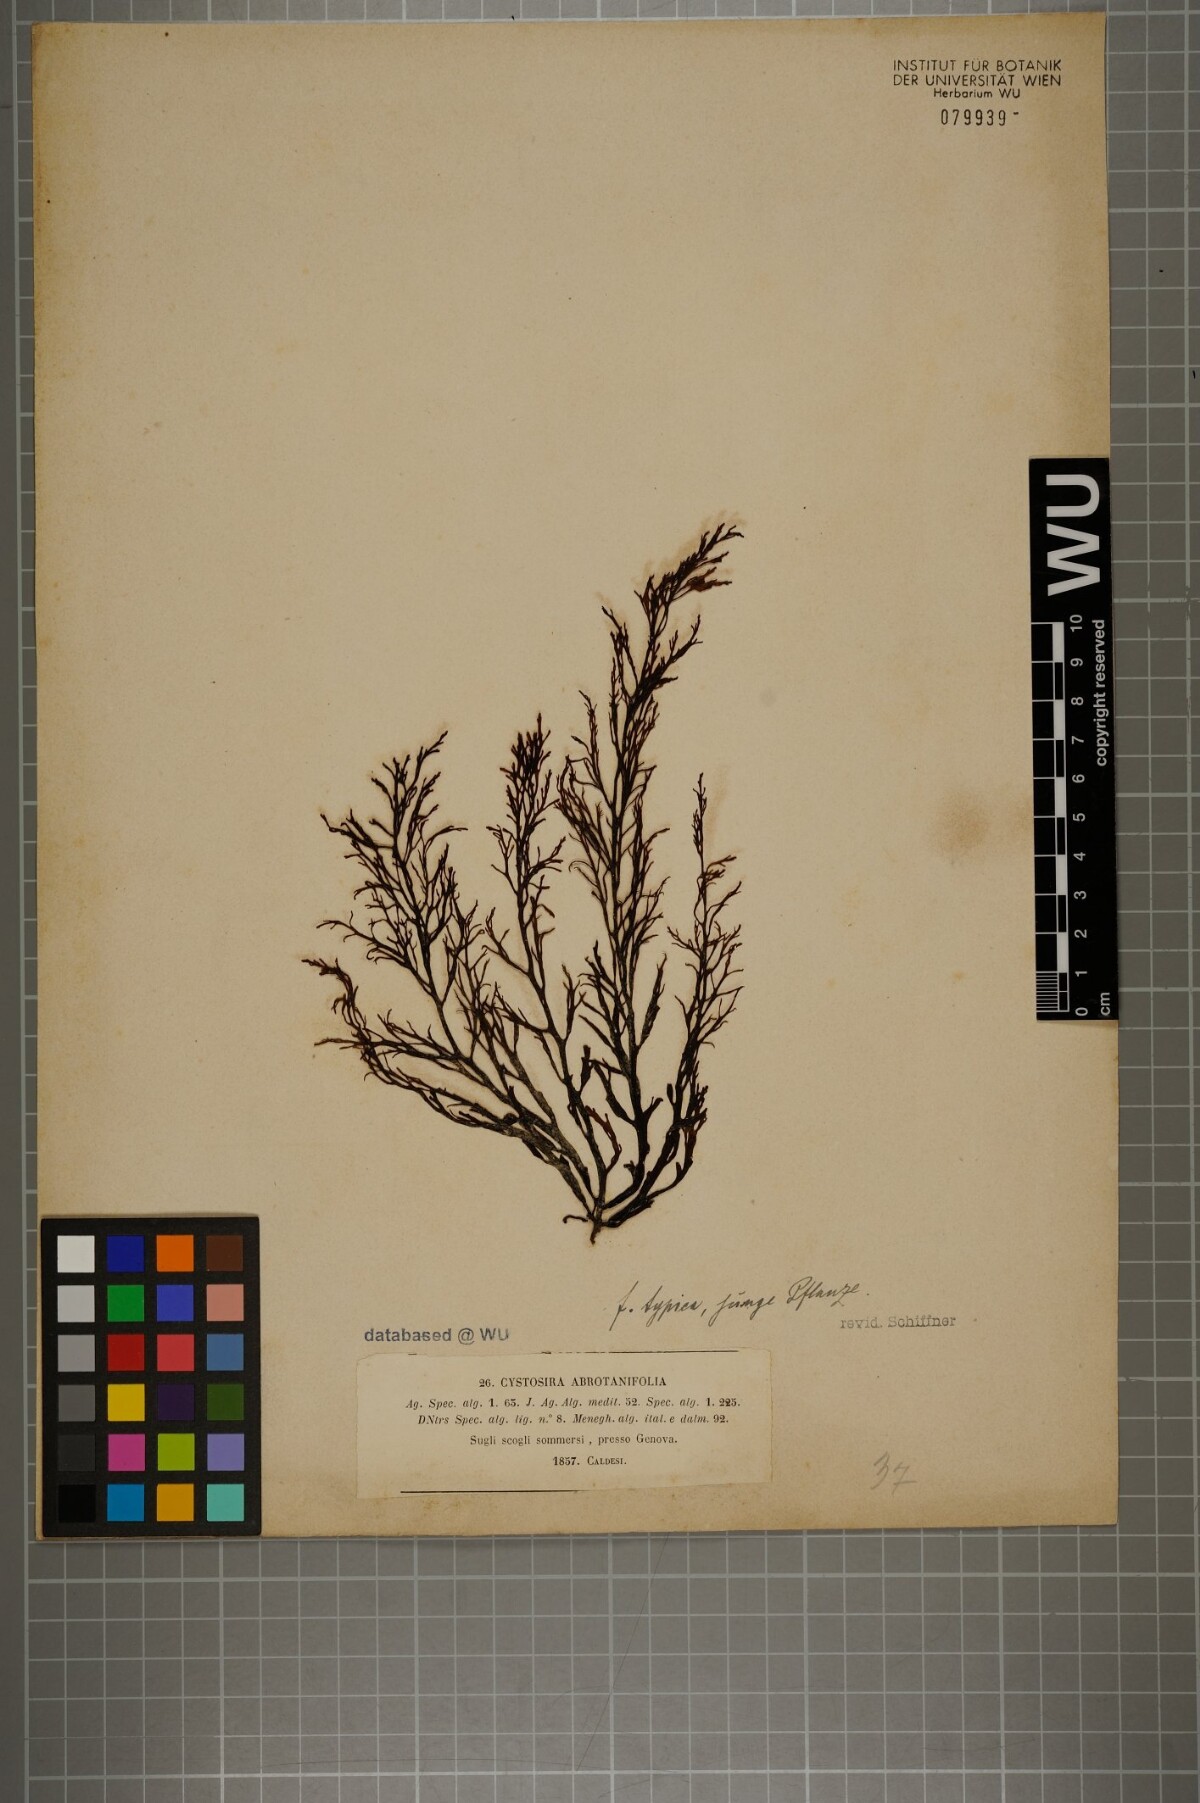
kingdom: Chromista
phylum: Ochrophyta
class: Phaeophyceae
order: Fucales
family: Sargassaceae
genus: Cystoseira
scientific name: Cystoseira foeniculacea
